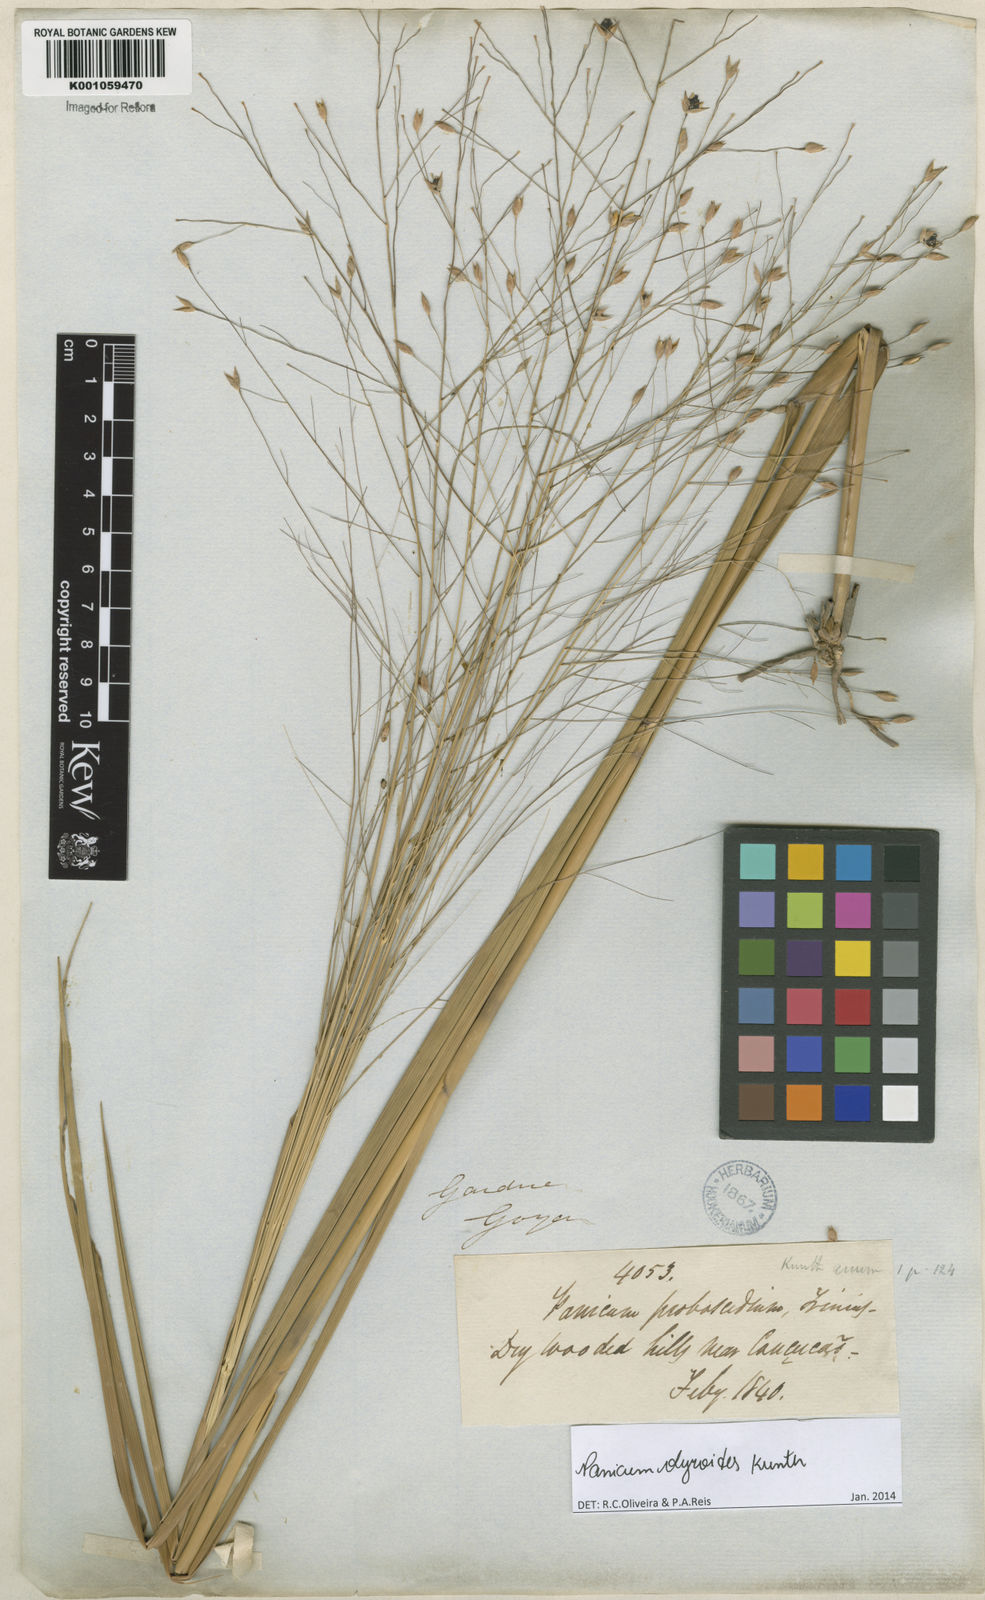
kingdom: Plantae
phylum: Tracheophyta
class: Liliopsida
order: Poales
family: Poaceae
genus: Panicum
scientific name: Panicum olyroides
